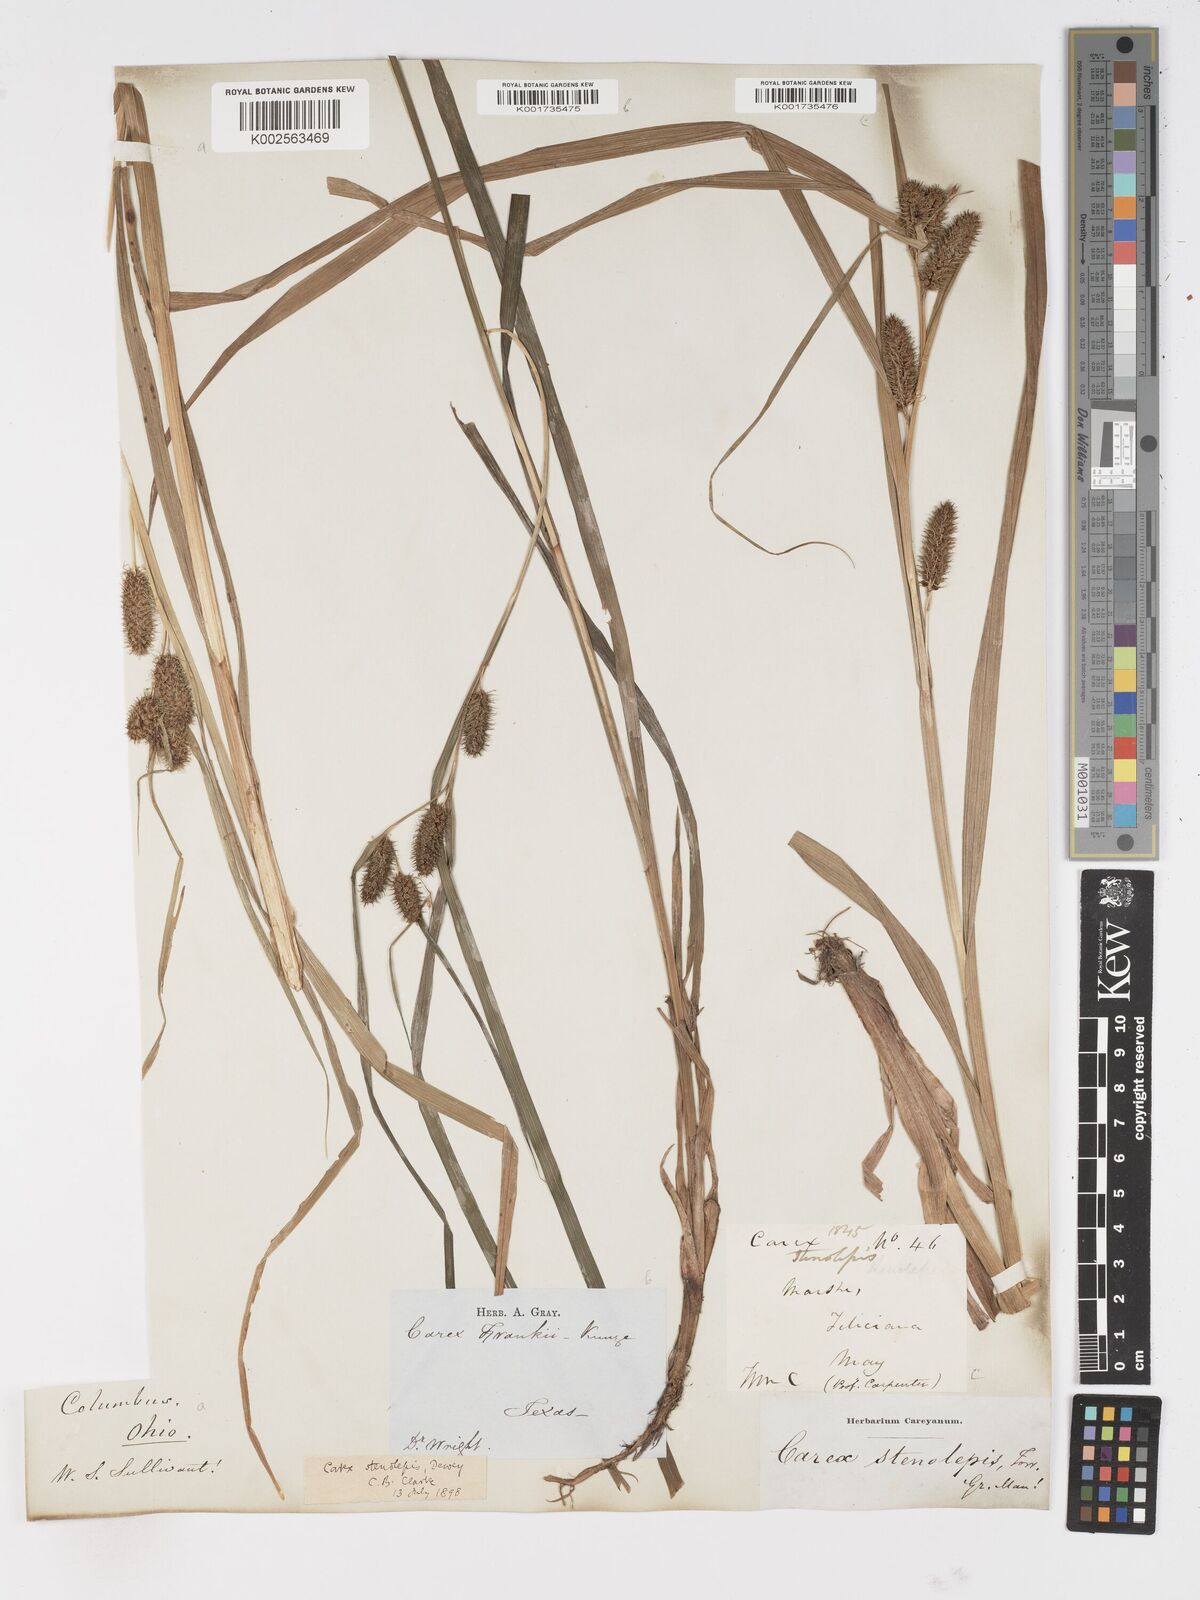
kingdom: Plantae
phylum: Tracheophyta
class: Liliopsida
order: Poales
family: Cyperaceae
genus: Carex
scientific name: Carex frankii
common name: Frank's sedge
